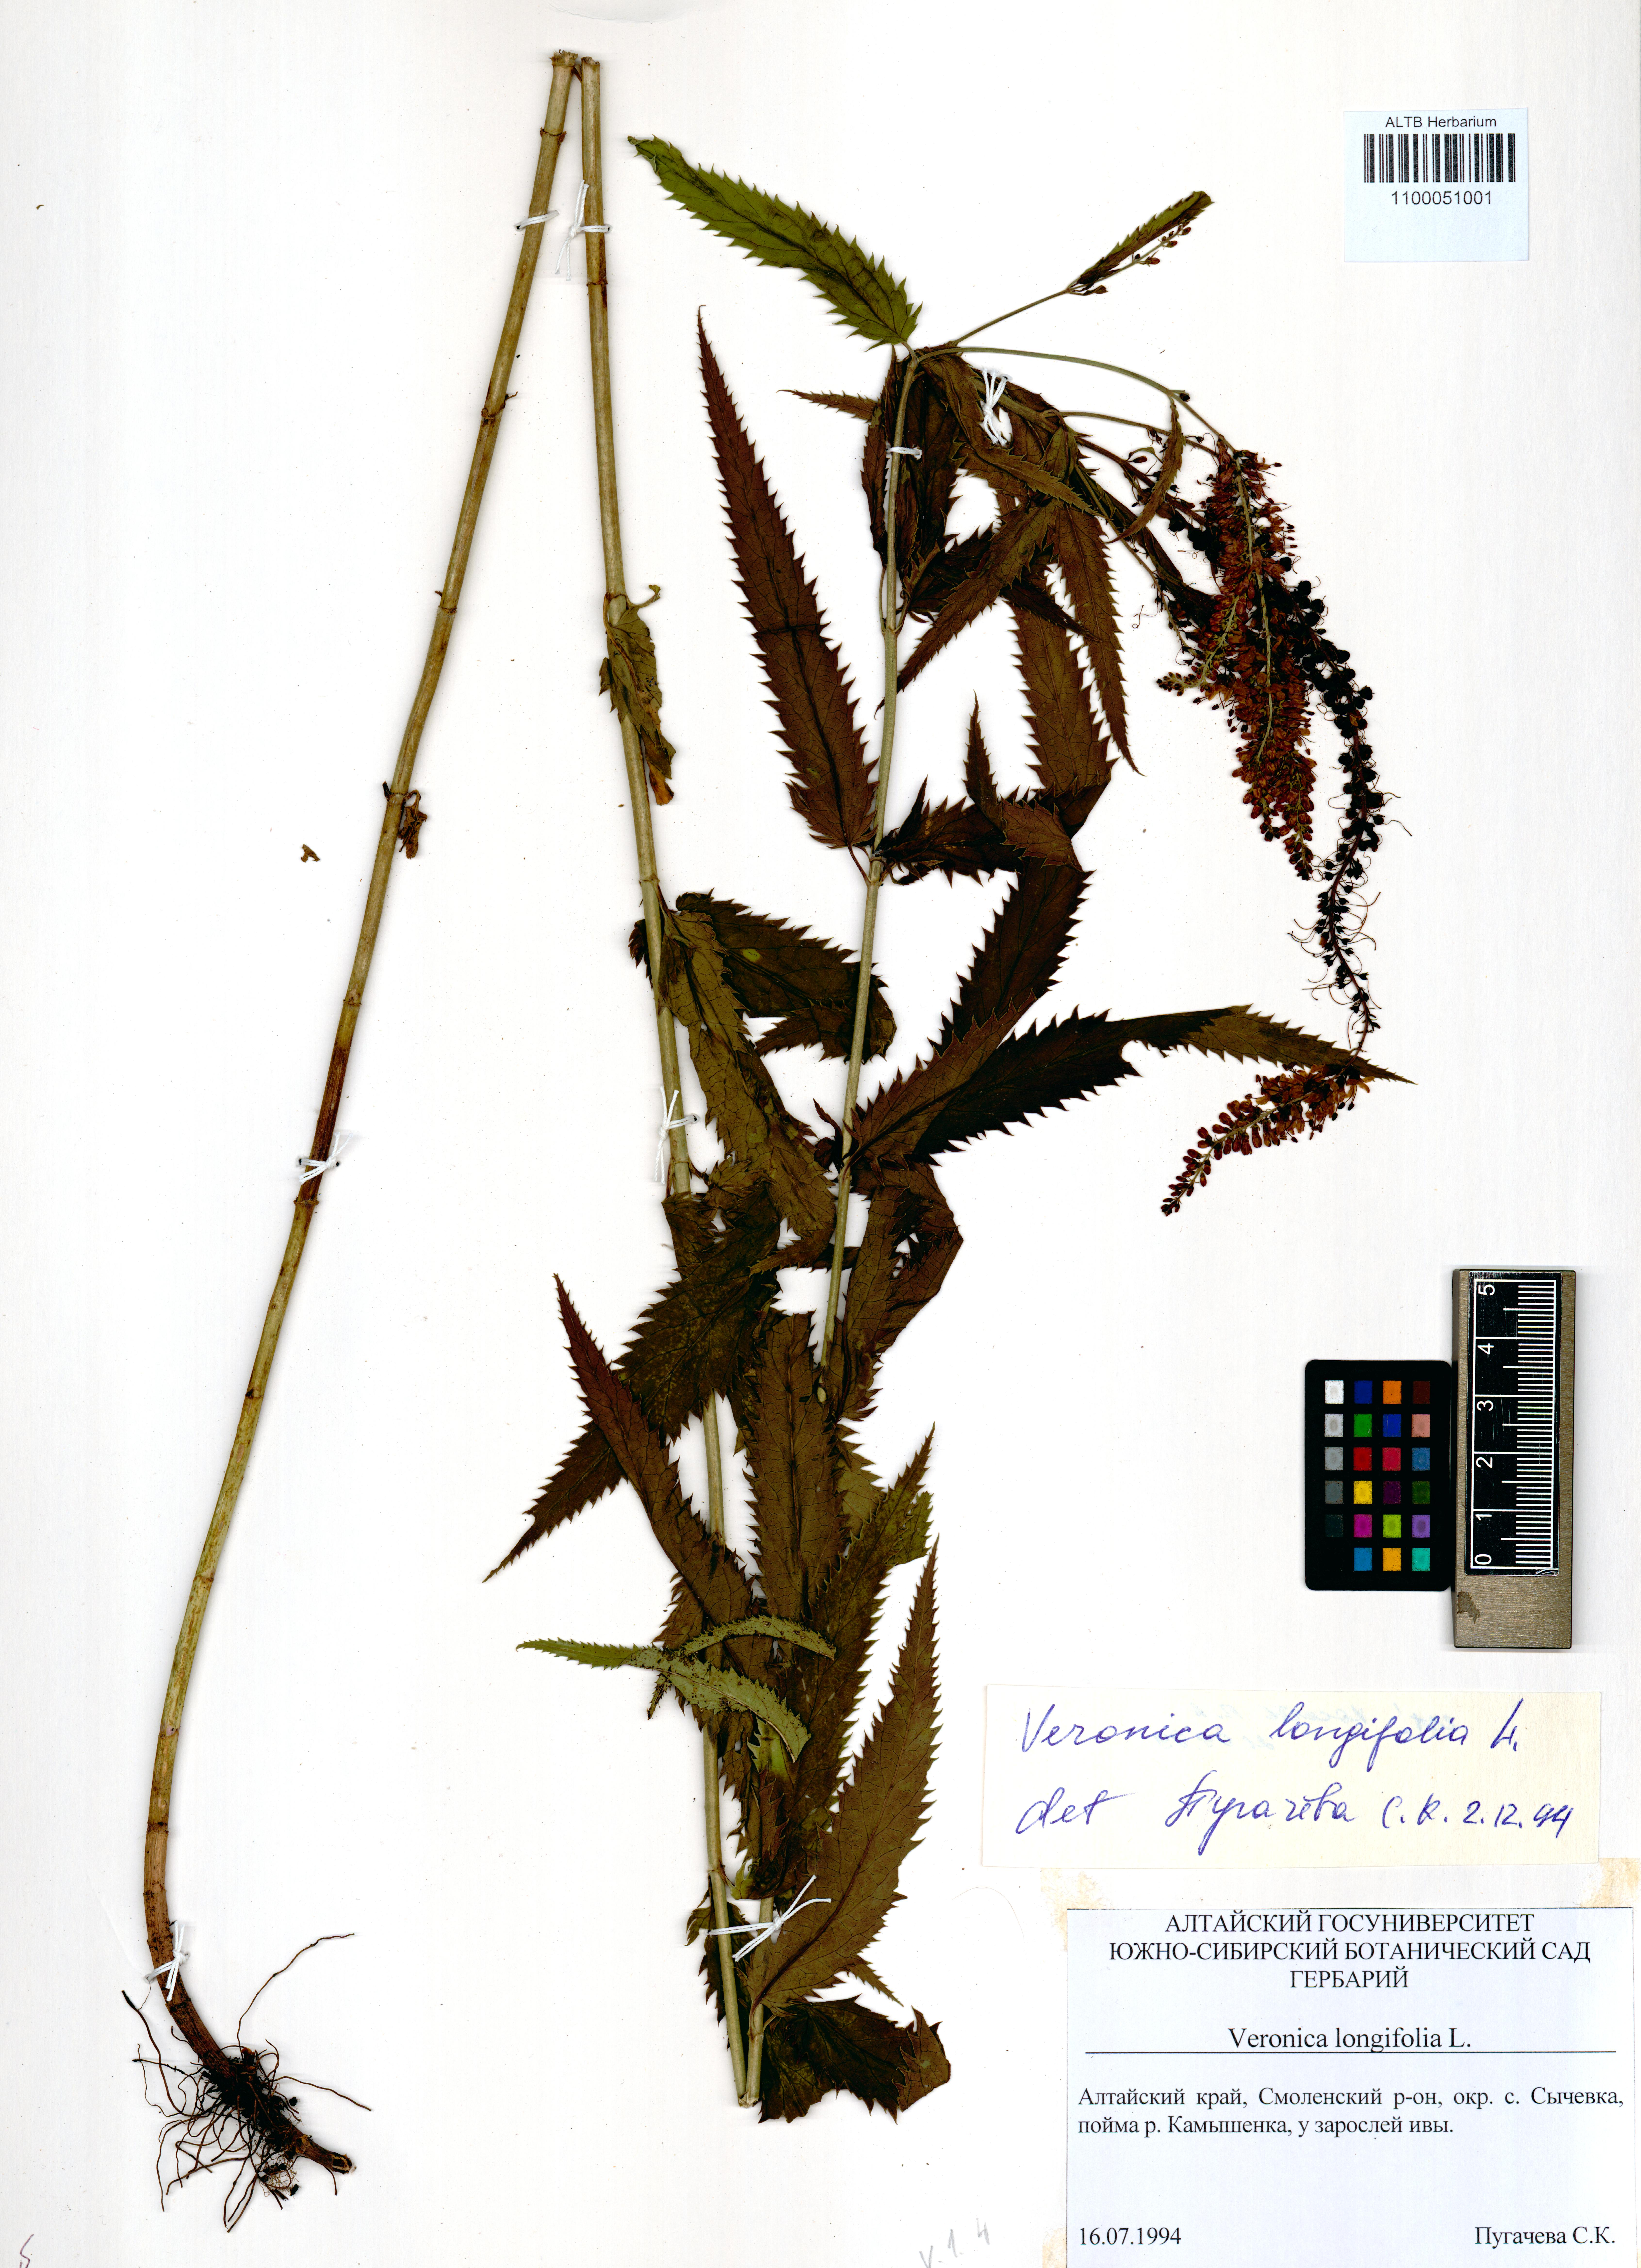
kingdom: Plantae
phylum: Tracheophyta
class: Magnoliopsida
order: Lamiales
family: Plantaginaceae
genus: Veronica
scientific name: Veronica longifolia
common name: Garden speedwell
